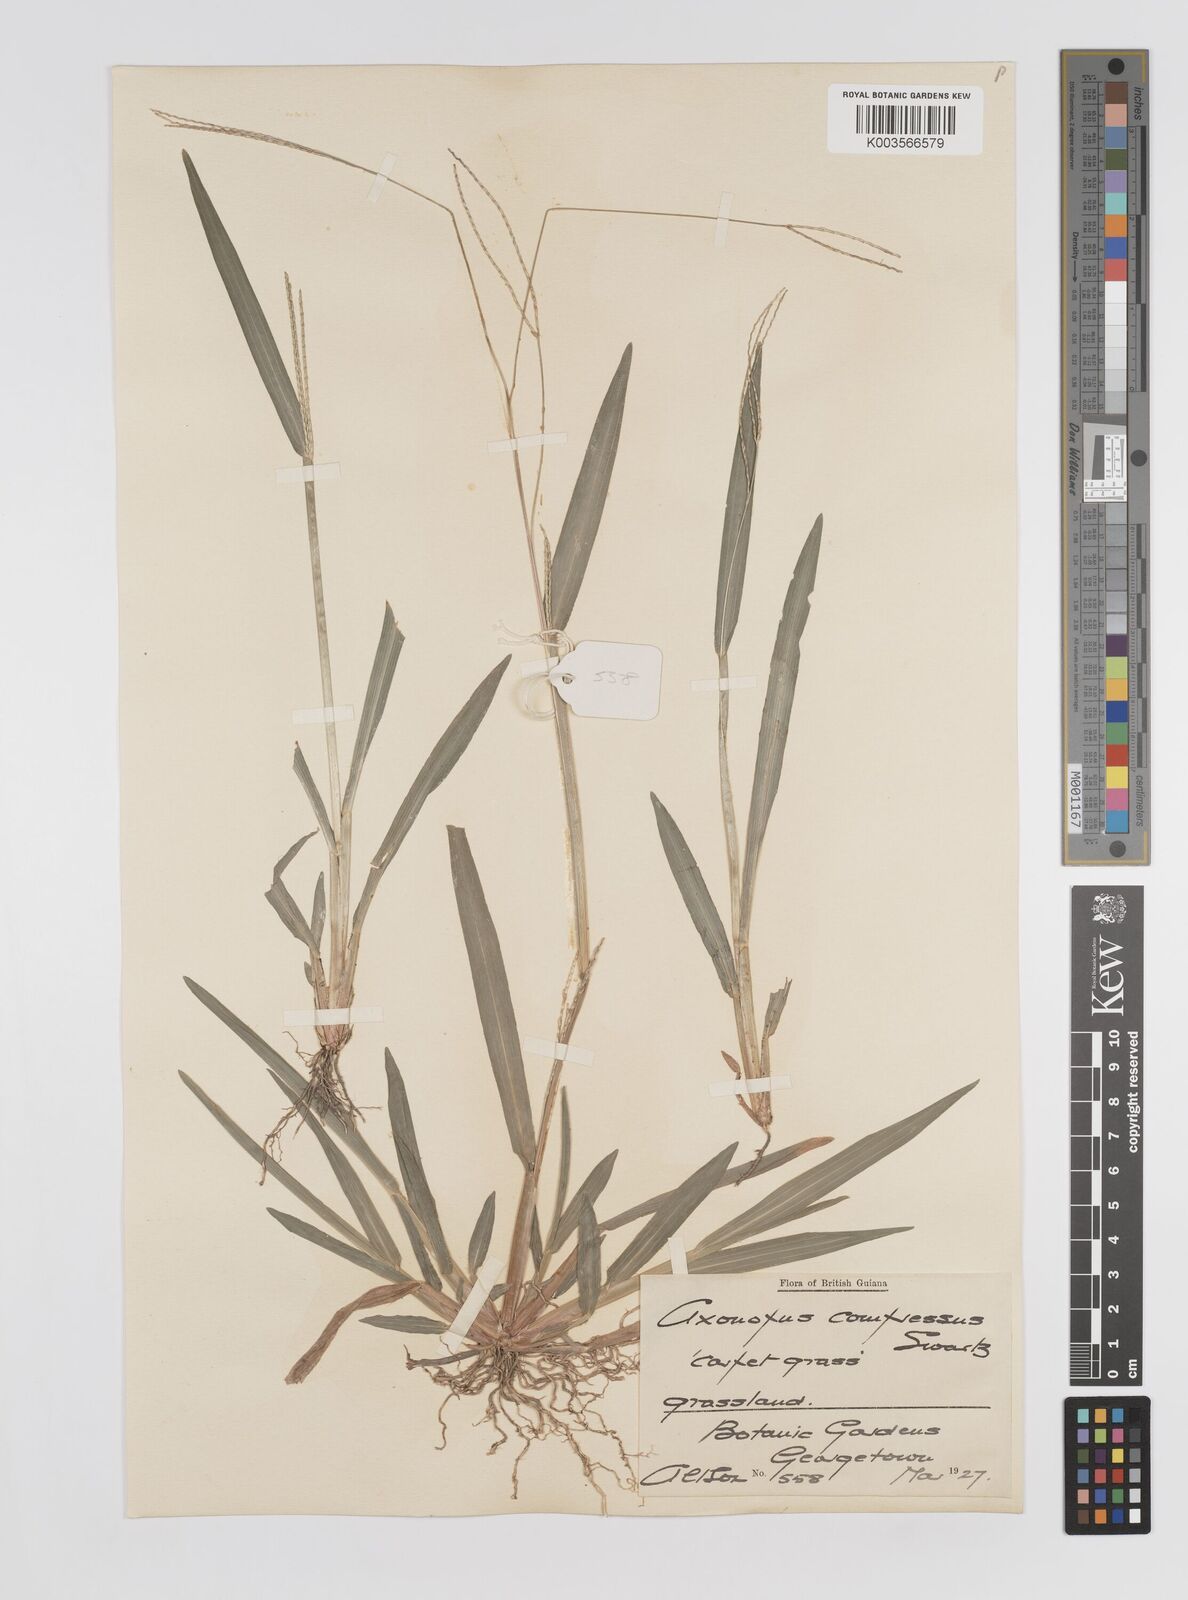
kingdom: Plantae
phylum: Tracheophyta
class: Liliopsida
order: Poales
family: Poaceae
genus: Axonopus
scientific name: Axonopus compressus
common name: American carpet grass
